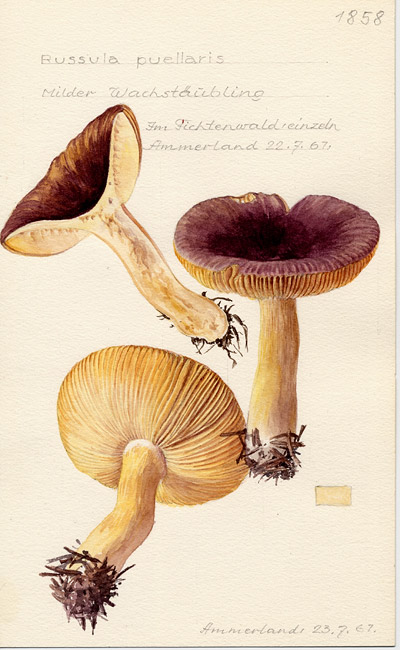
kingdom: Fungi
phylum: Basidiomycota
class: Agaricomycetes
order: Russulales
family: Russulaceae
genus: Russula
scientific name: Russula puellaris
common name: Yellowing brittlegill
